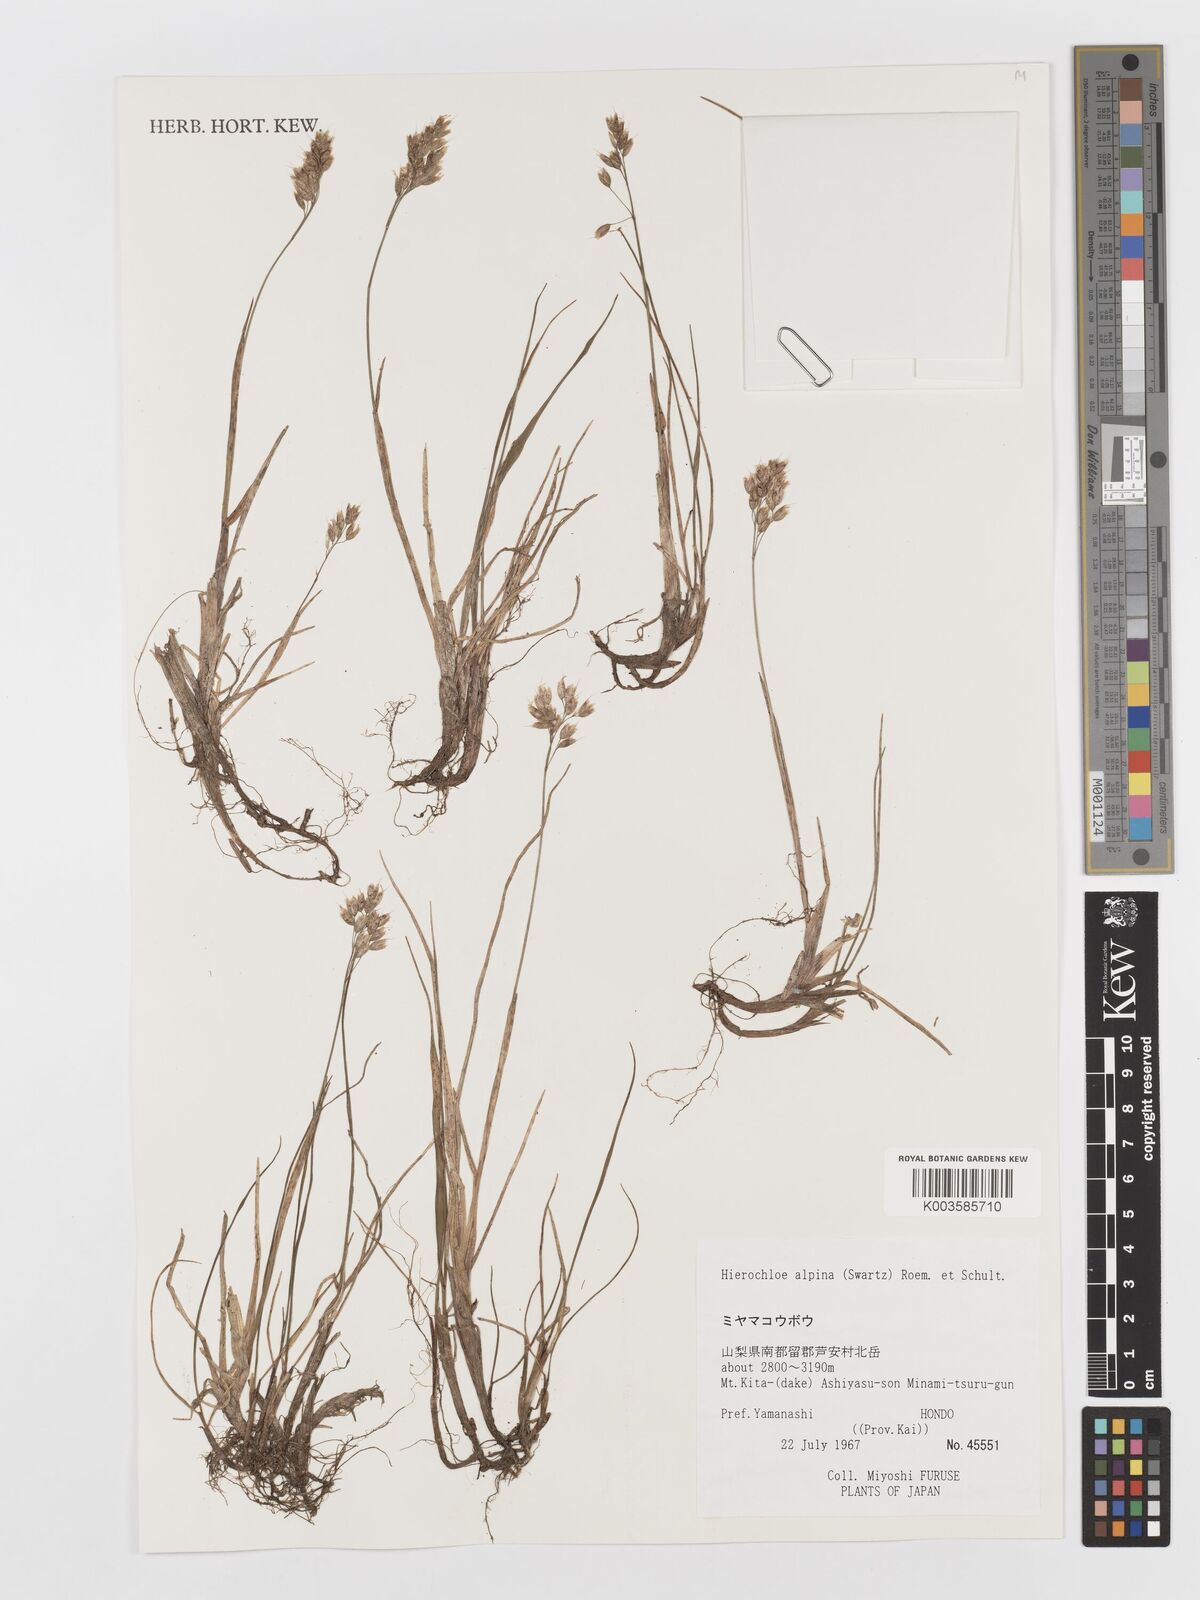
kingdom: Plantae
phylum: Tracheophyta
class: Liliopsida
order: Poales
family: Poaceae
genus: Anthoxanthum
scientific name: Anthoxanthum monticola
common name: Alpine sweetgrass
